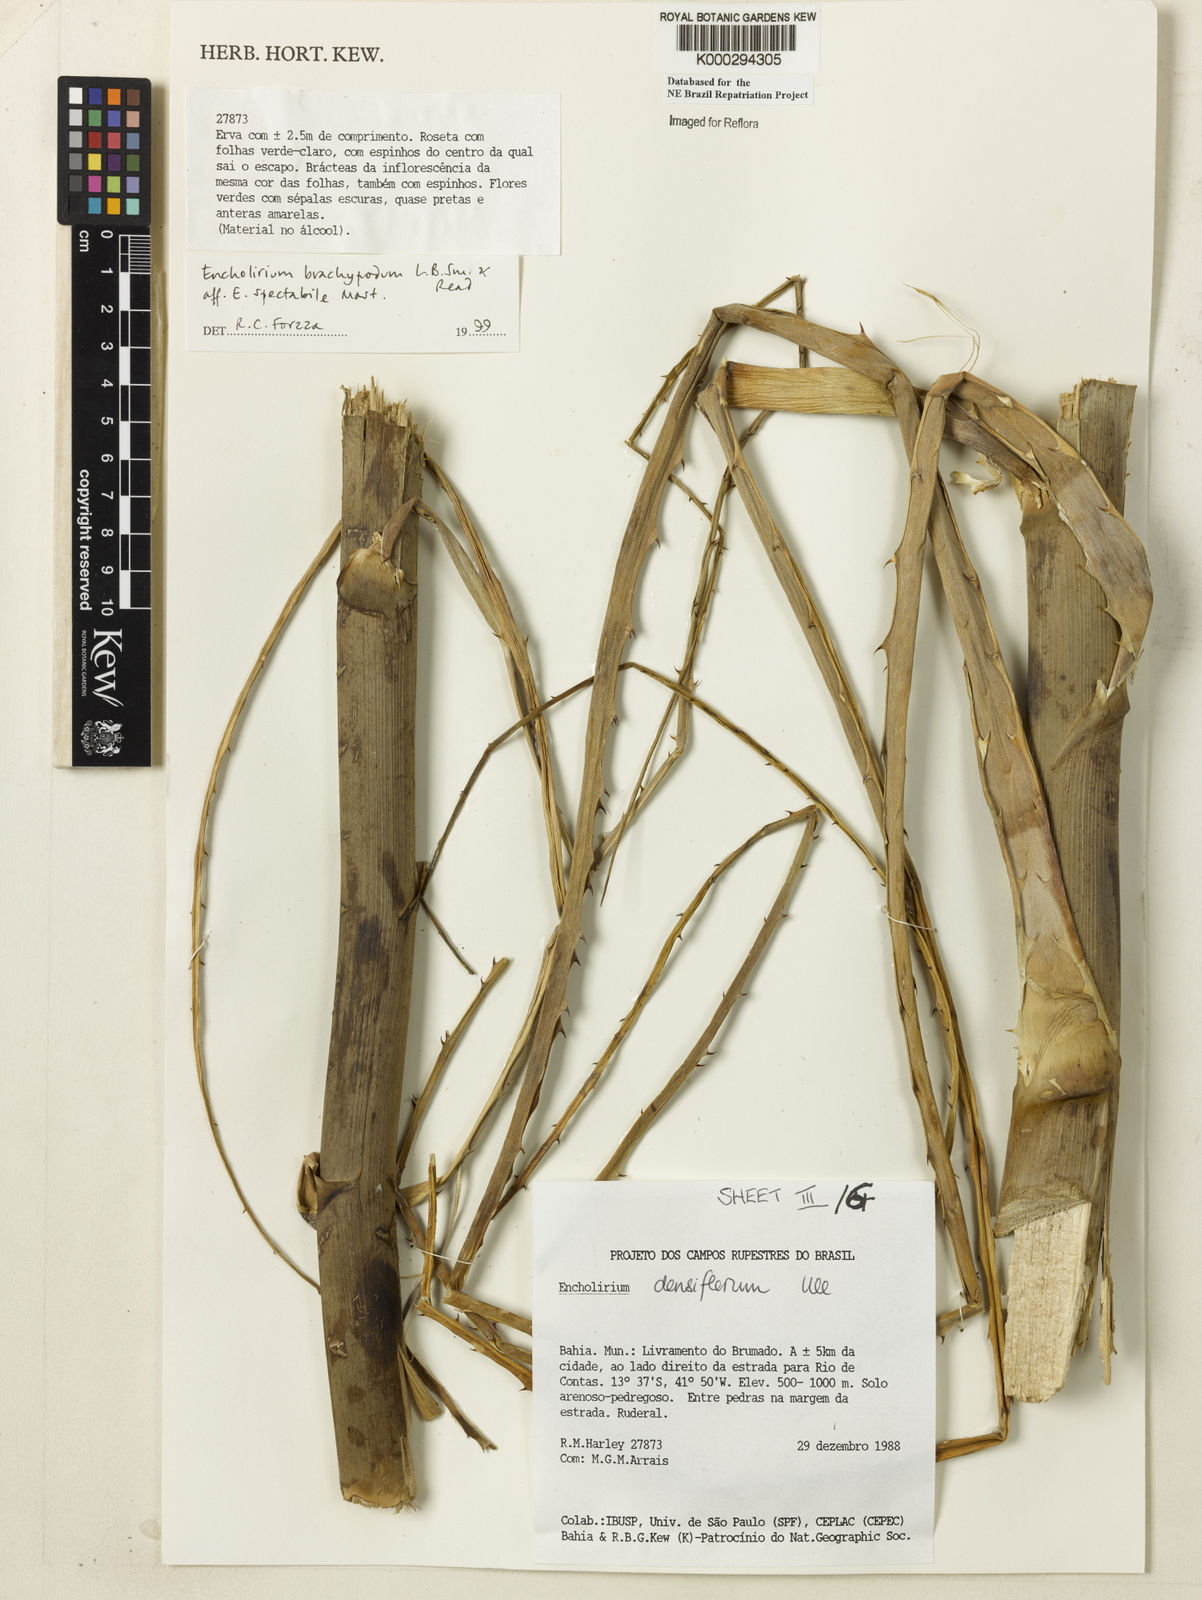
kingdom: Plantae
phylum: Tracheophyta
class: Liliopsida
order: Poales
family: Bromeliaceae
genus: Encholirium
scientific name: Encholirium brachypodum
